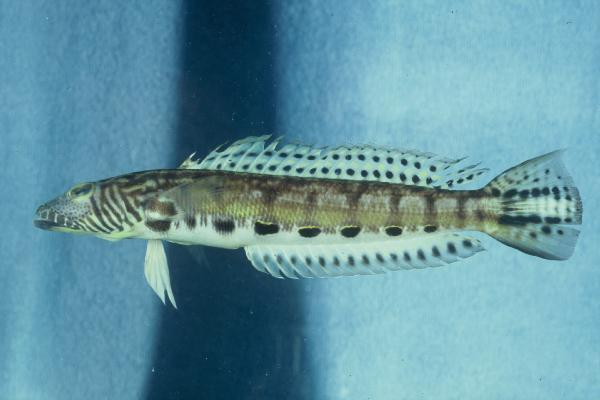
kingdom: Animalia
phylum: Chordata
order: Perciformes
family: Pinguipedidae
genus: Parapercis
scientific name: Parapercis kamoharai
